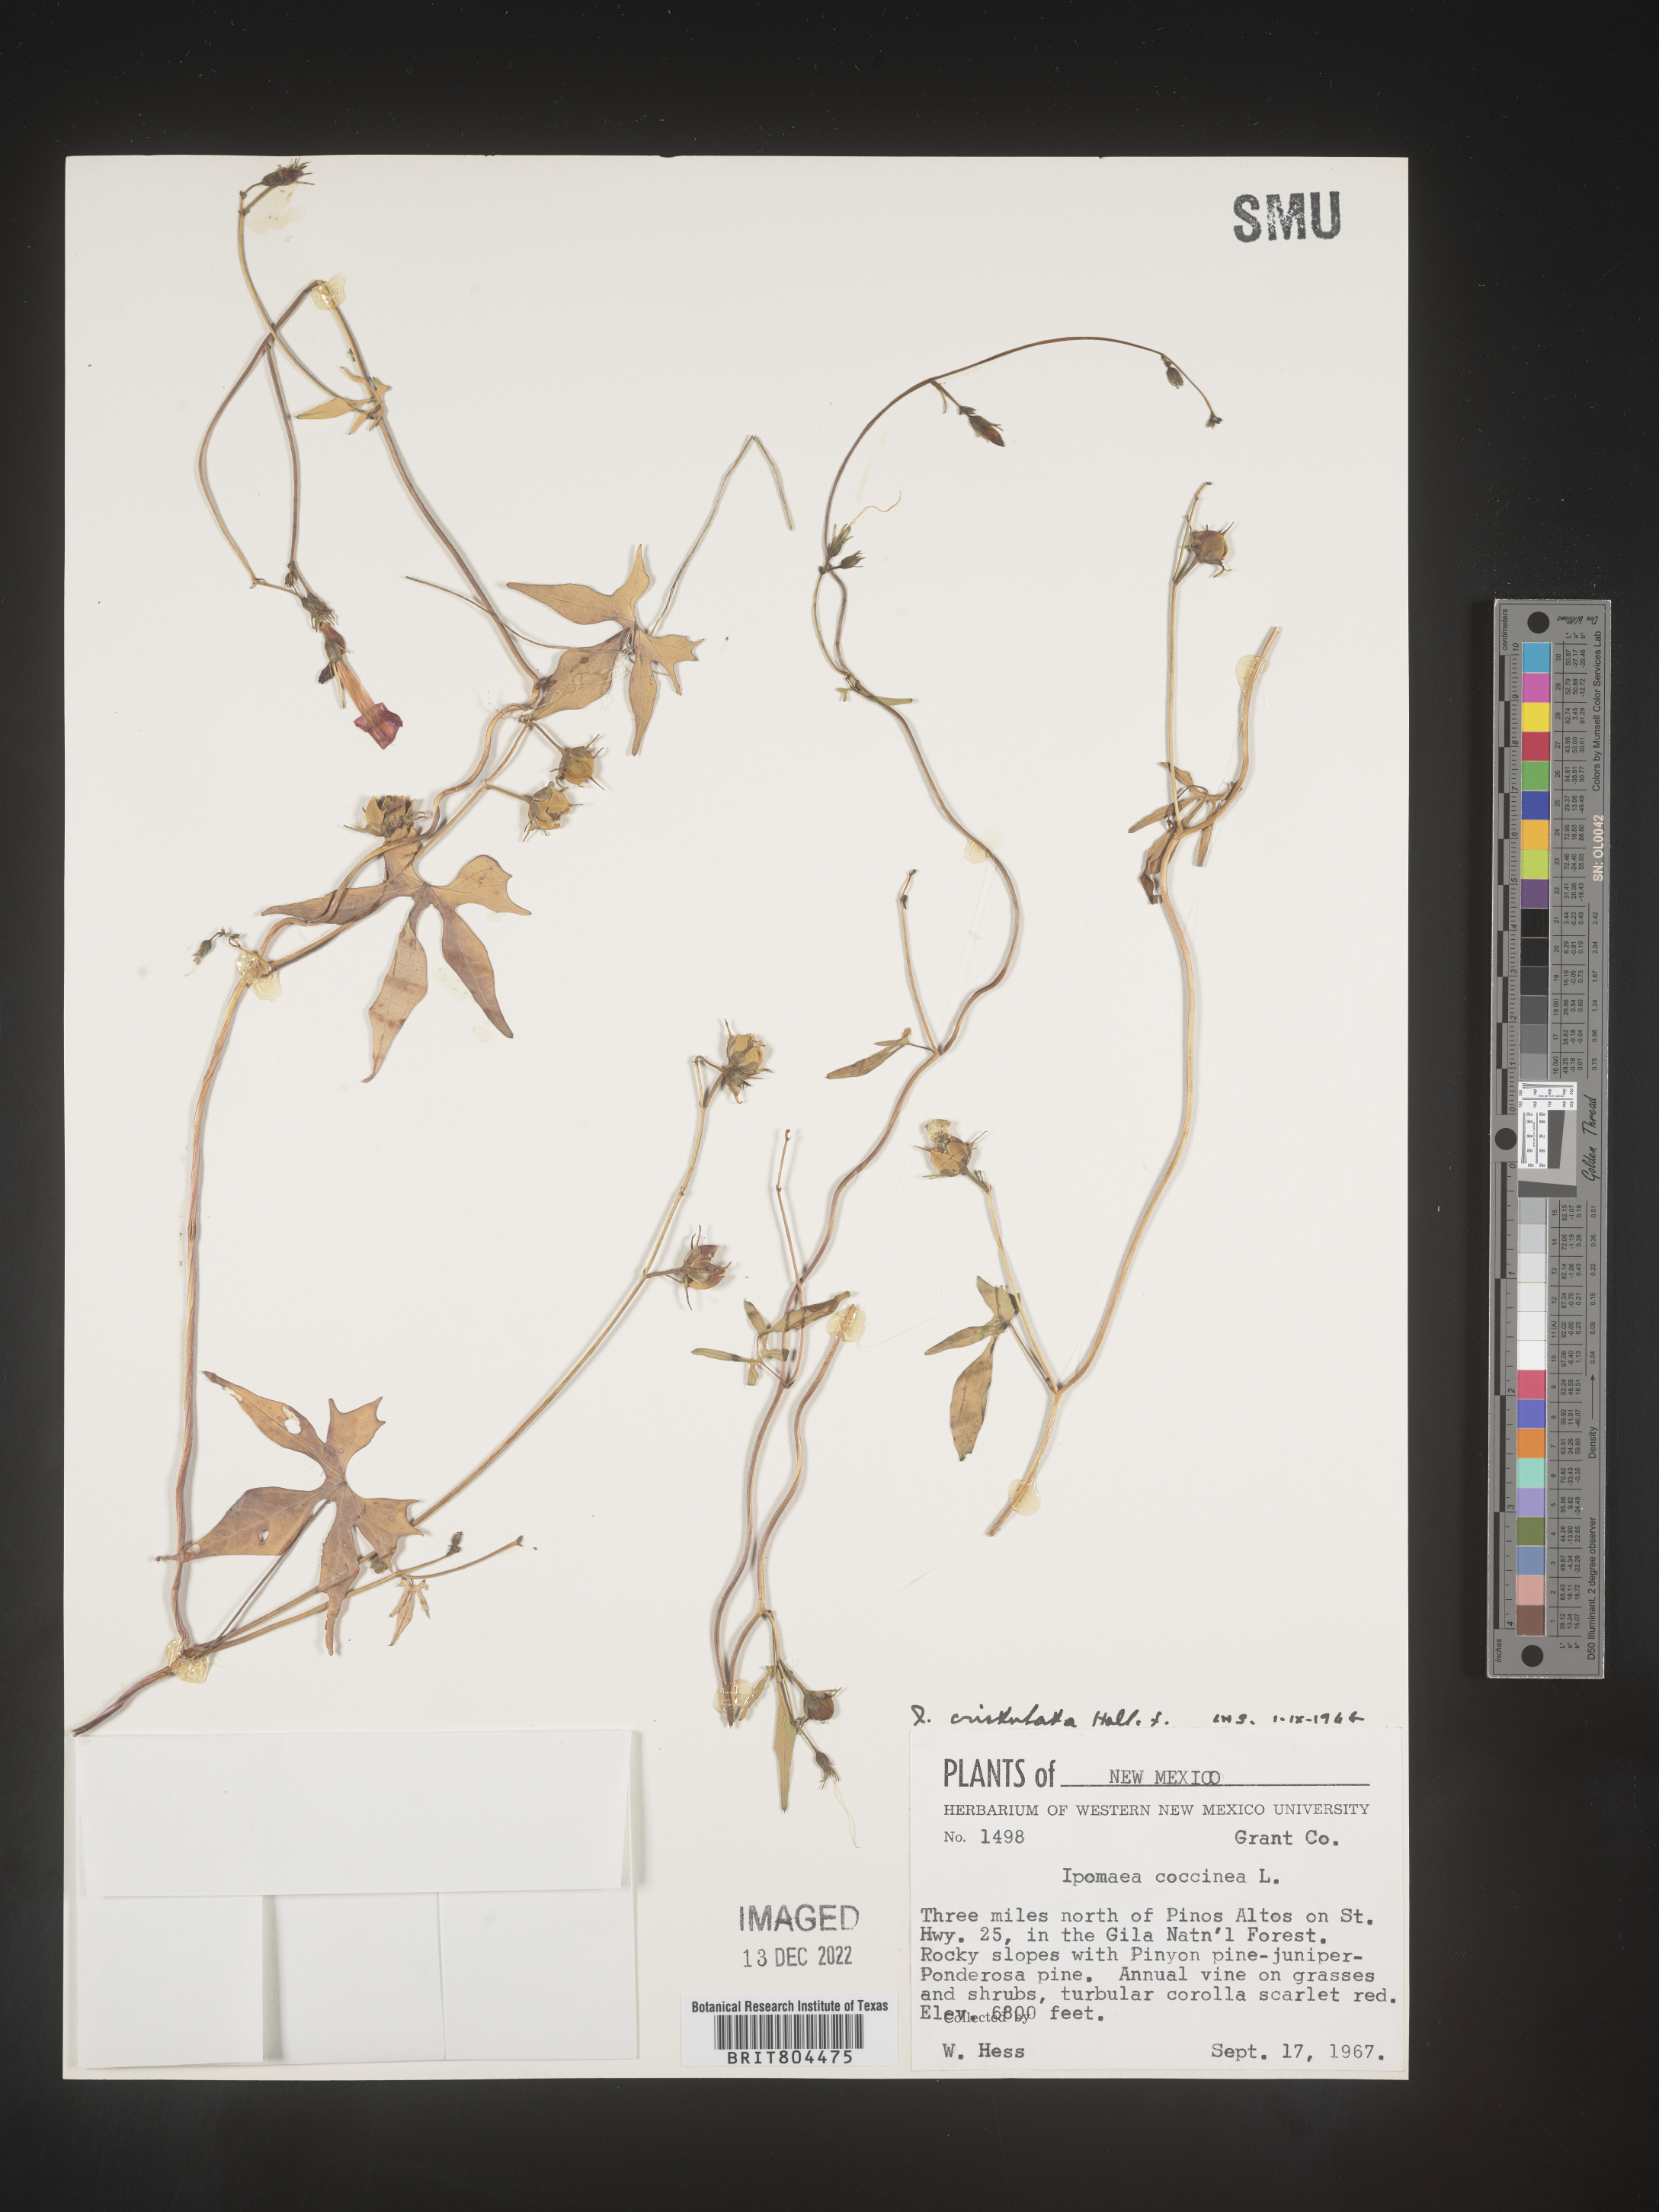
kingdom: Plantae
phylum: Tracheophyta
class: Magnoliopsida
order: Solanales
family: Convolvulaceae
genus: Ipomoea
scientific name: Ipomoea cristulata
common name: Trans-pecos morning-glory
